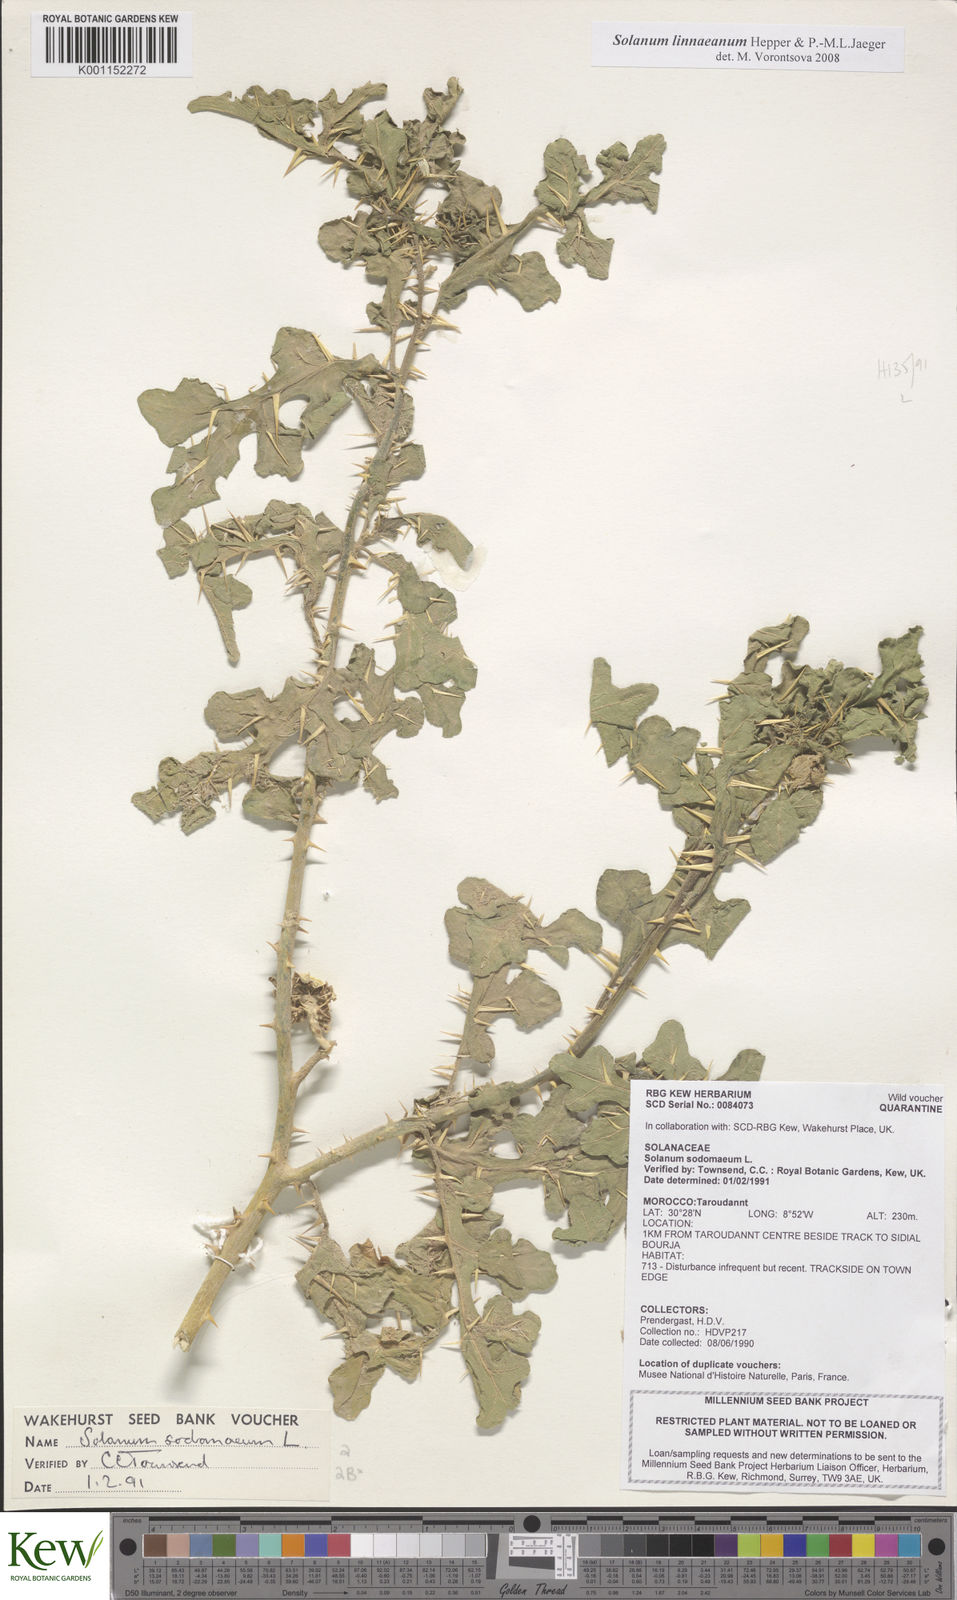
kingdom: Plantae
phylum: Tracheophyta
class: Magnoliopsida
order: Solanales
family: Solanaceae
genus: Solanum
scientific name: Solanum linnaeanum
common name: Nightshade
